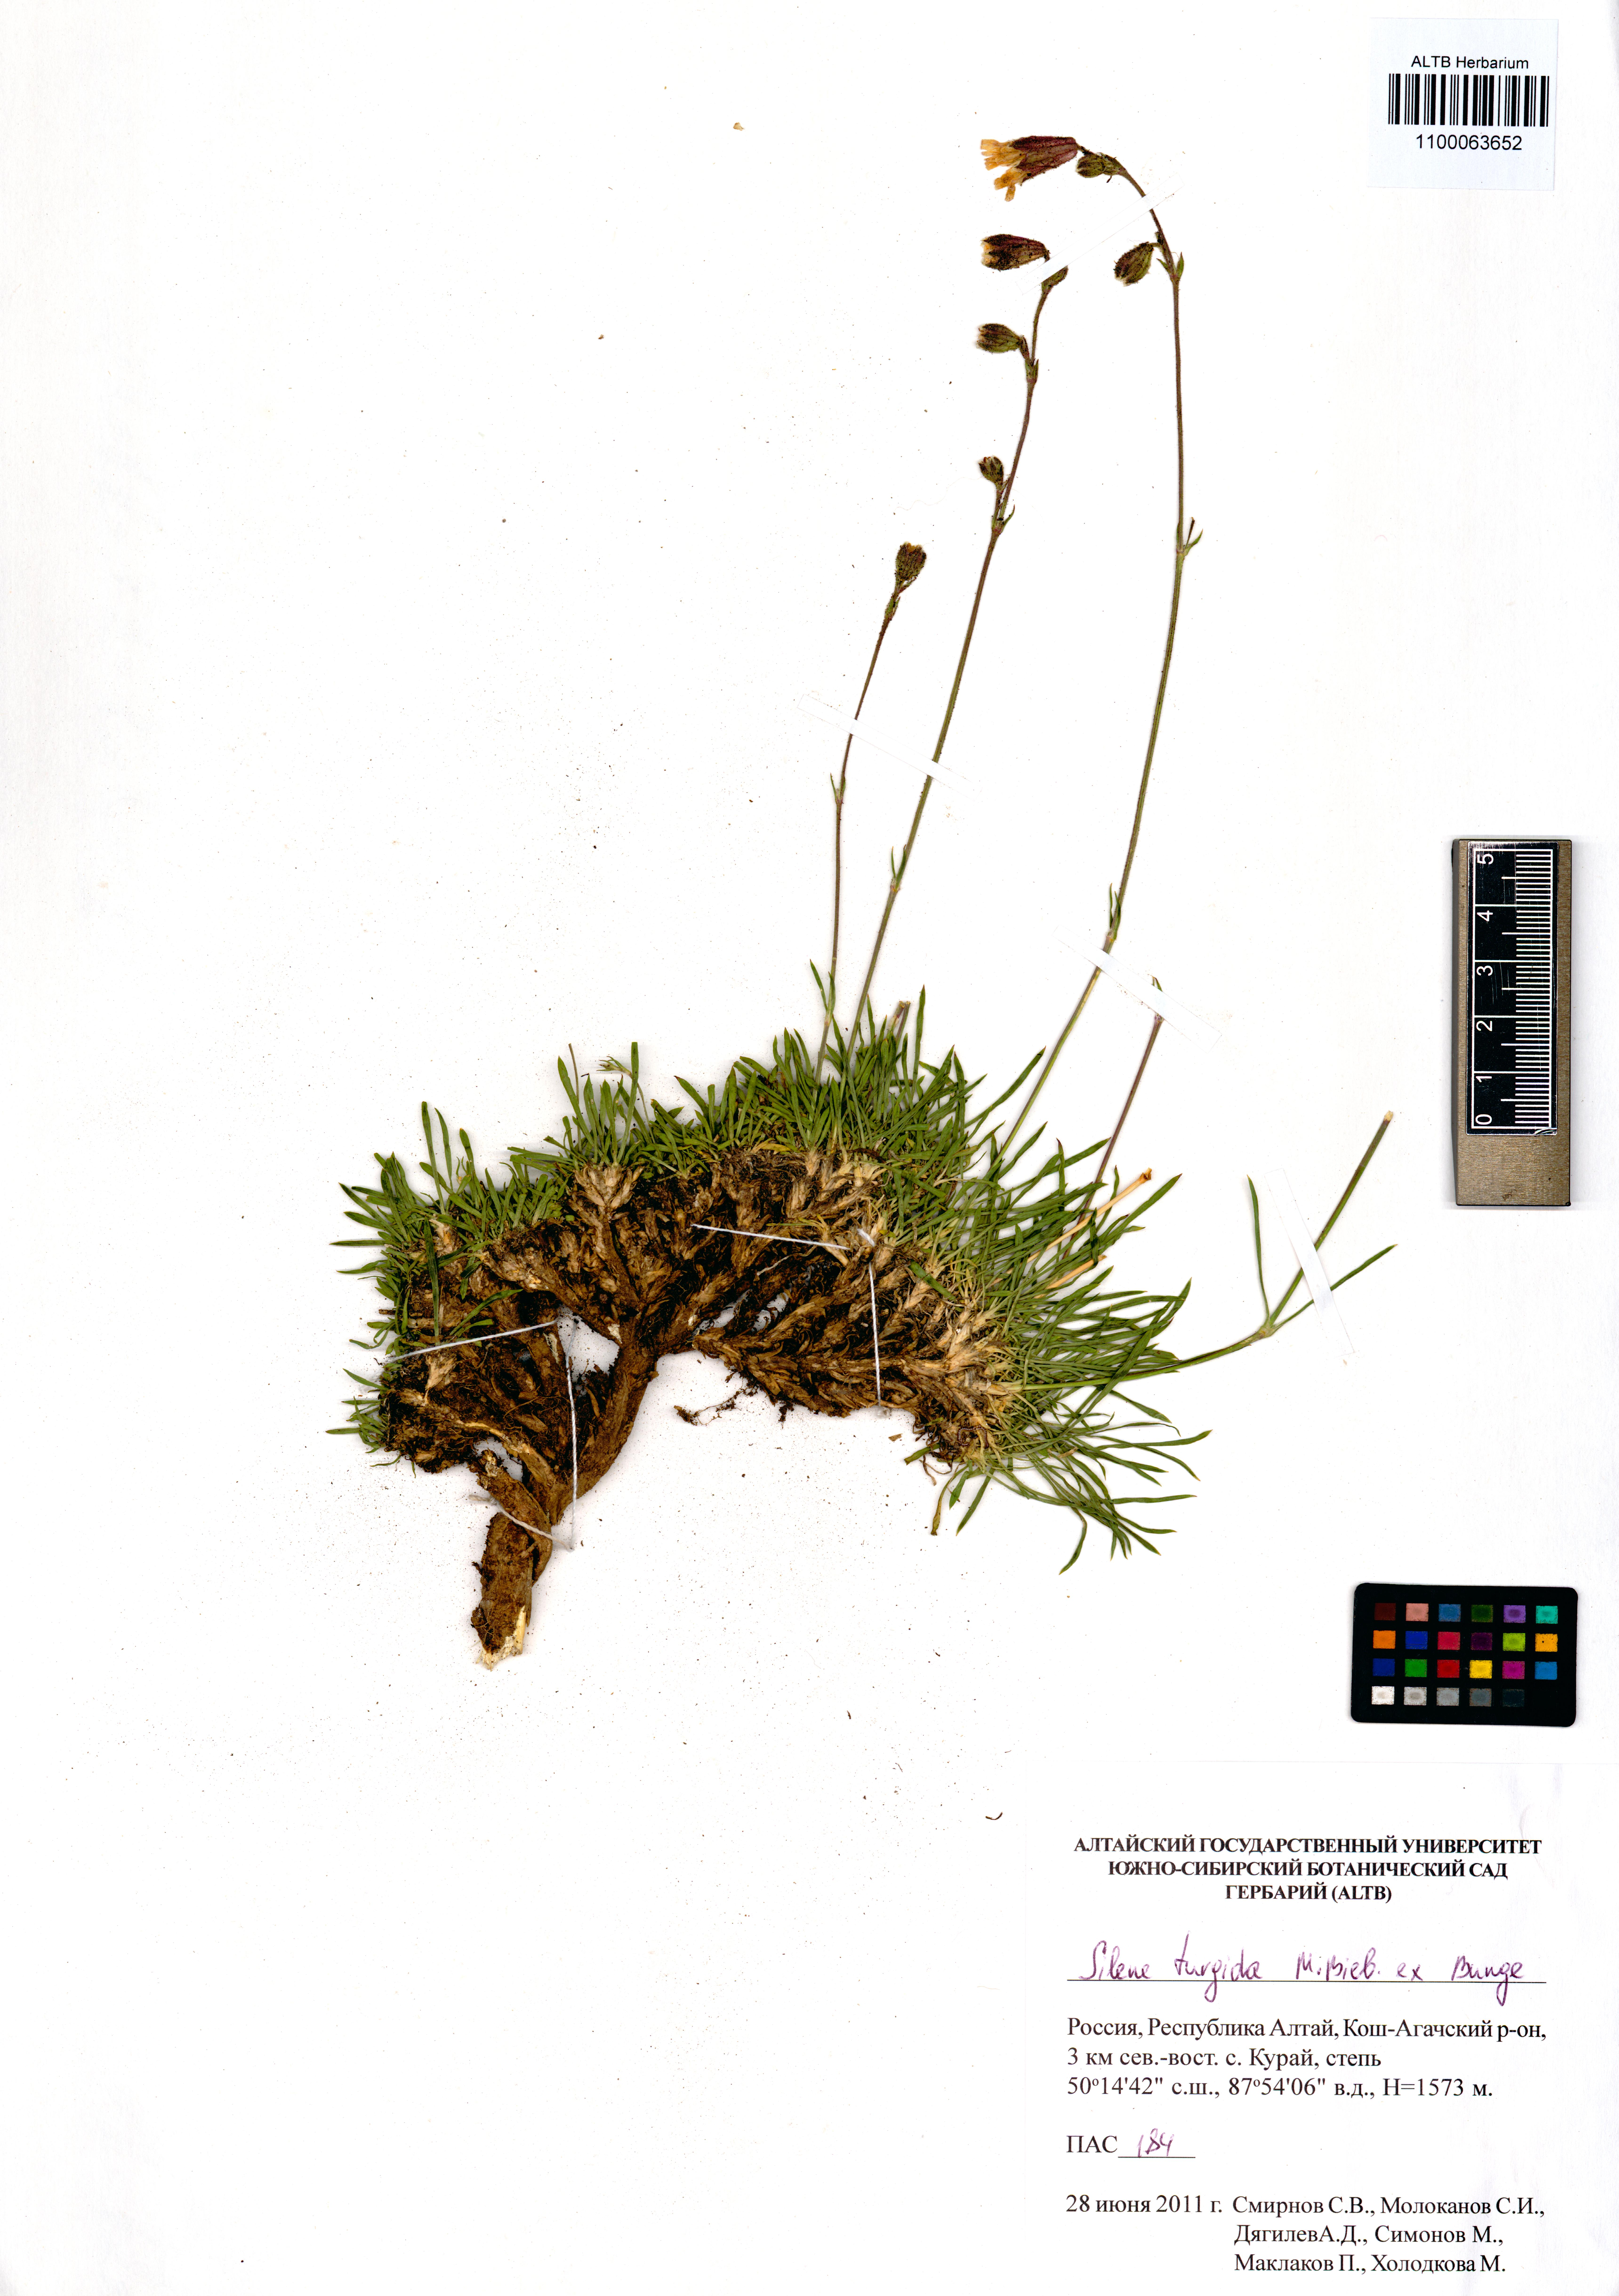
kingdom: Plantae
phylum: Tracheophyta
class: Magnoliopsida
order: Caryophyllales
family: Caryophyllaceae
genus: Silene
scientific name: Silene turgida
